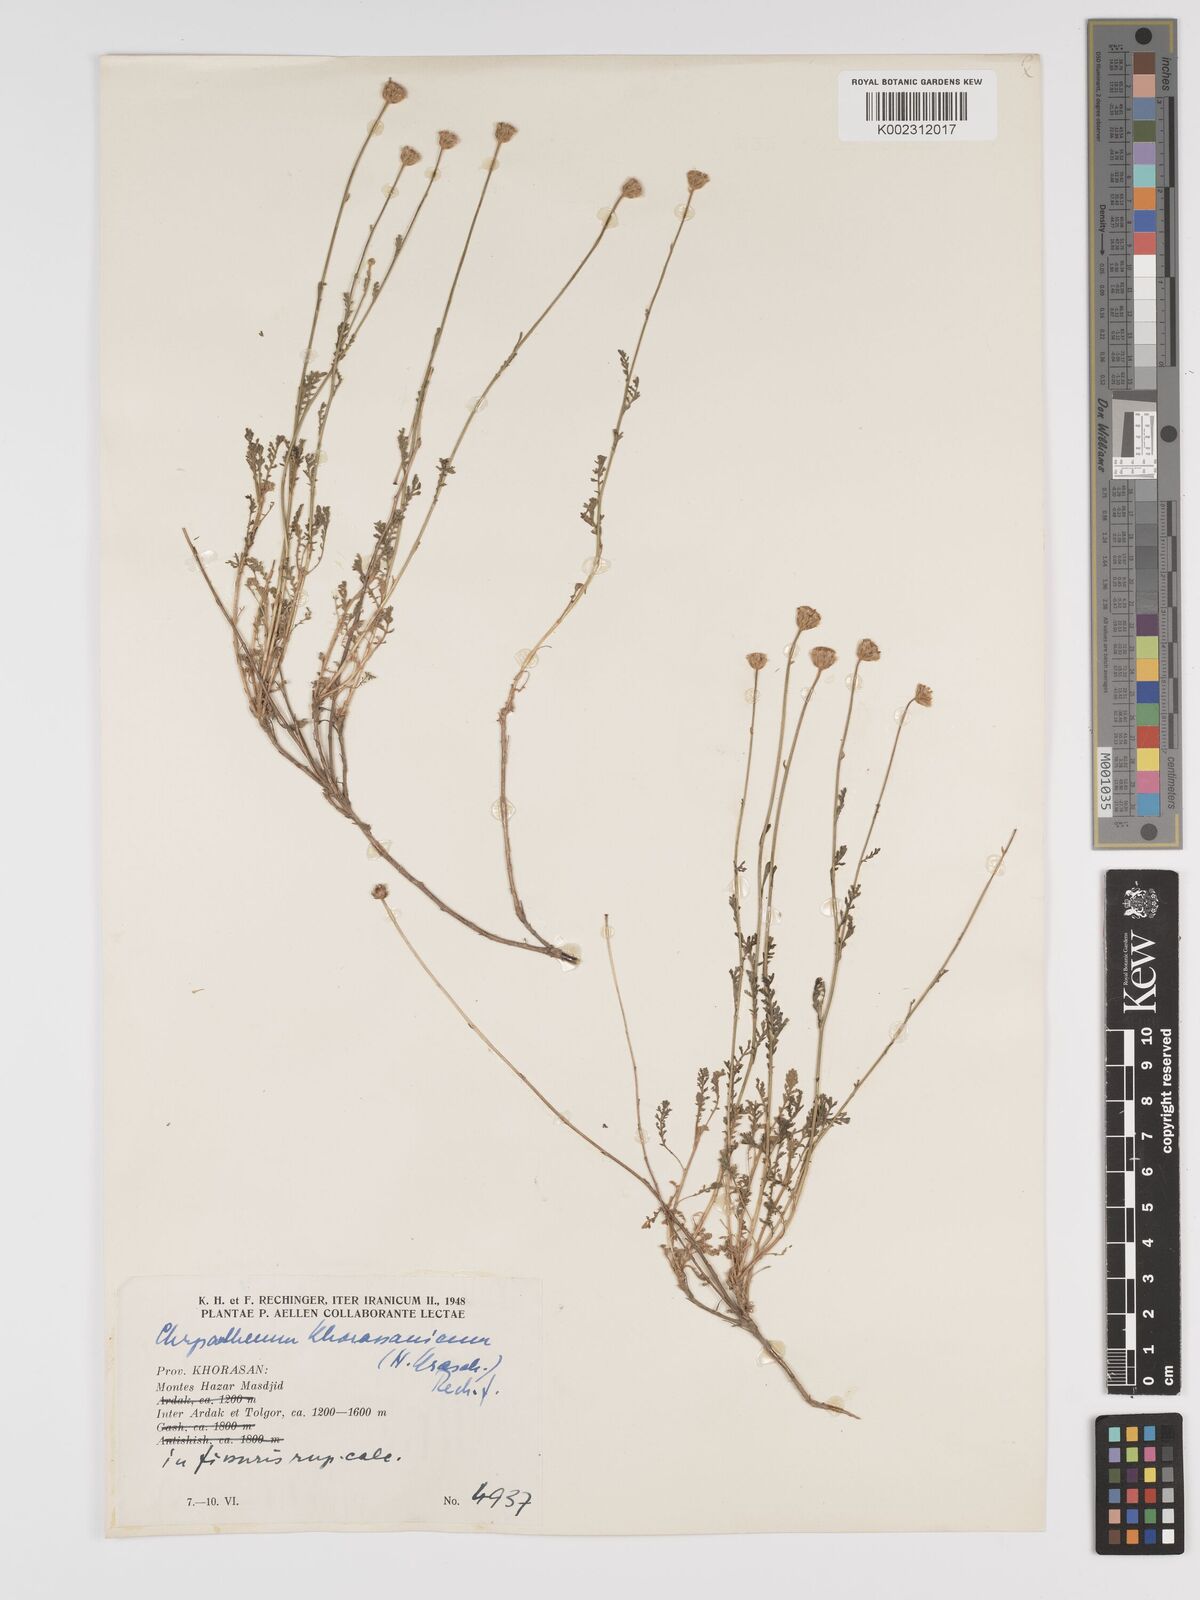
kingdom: Plantae
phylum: Tracheophyta
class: Magnoliopsida
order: Asterales
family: Asteraceae
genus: Tanacetum
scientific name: Tanacetum khorassanicum
